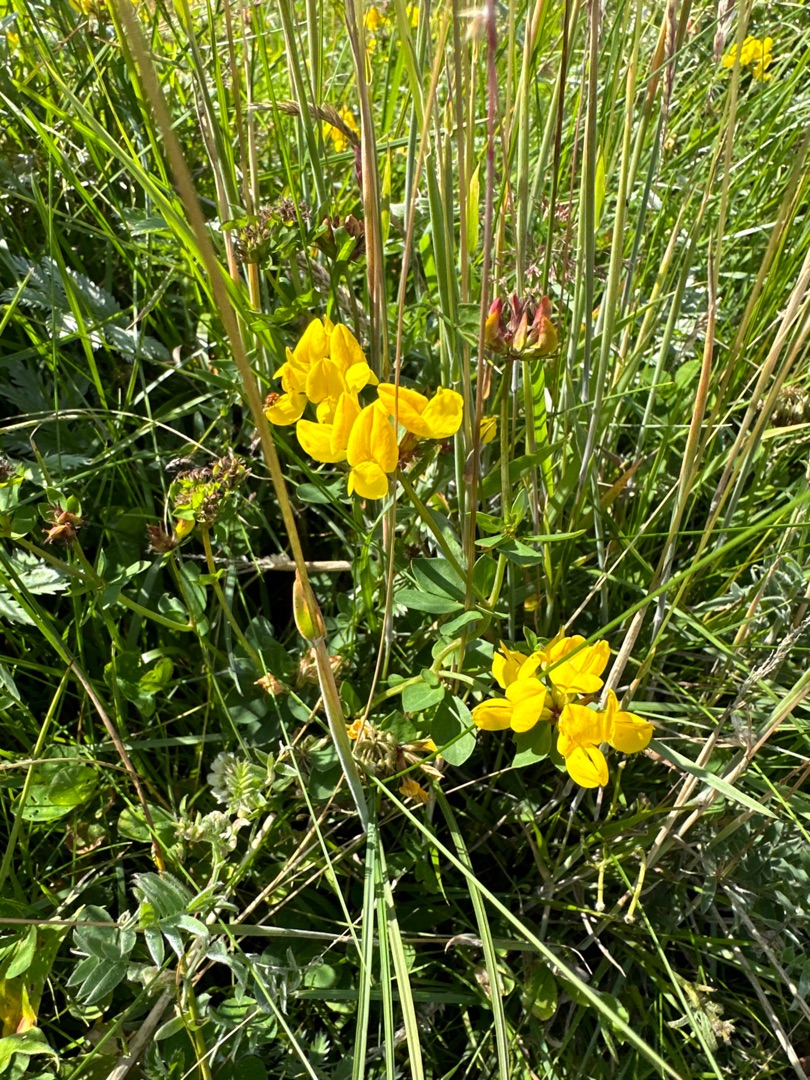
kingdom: Plantae
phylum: Tracheophyta
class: Magnoliopsida
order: Fabales
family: Fabaceae
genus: Lotus
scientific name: Lotus corniculatus
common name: Almindelig kællingetand
